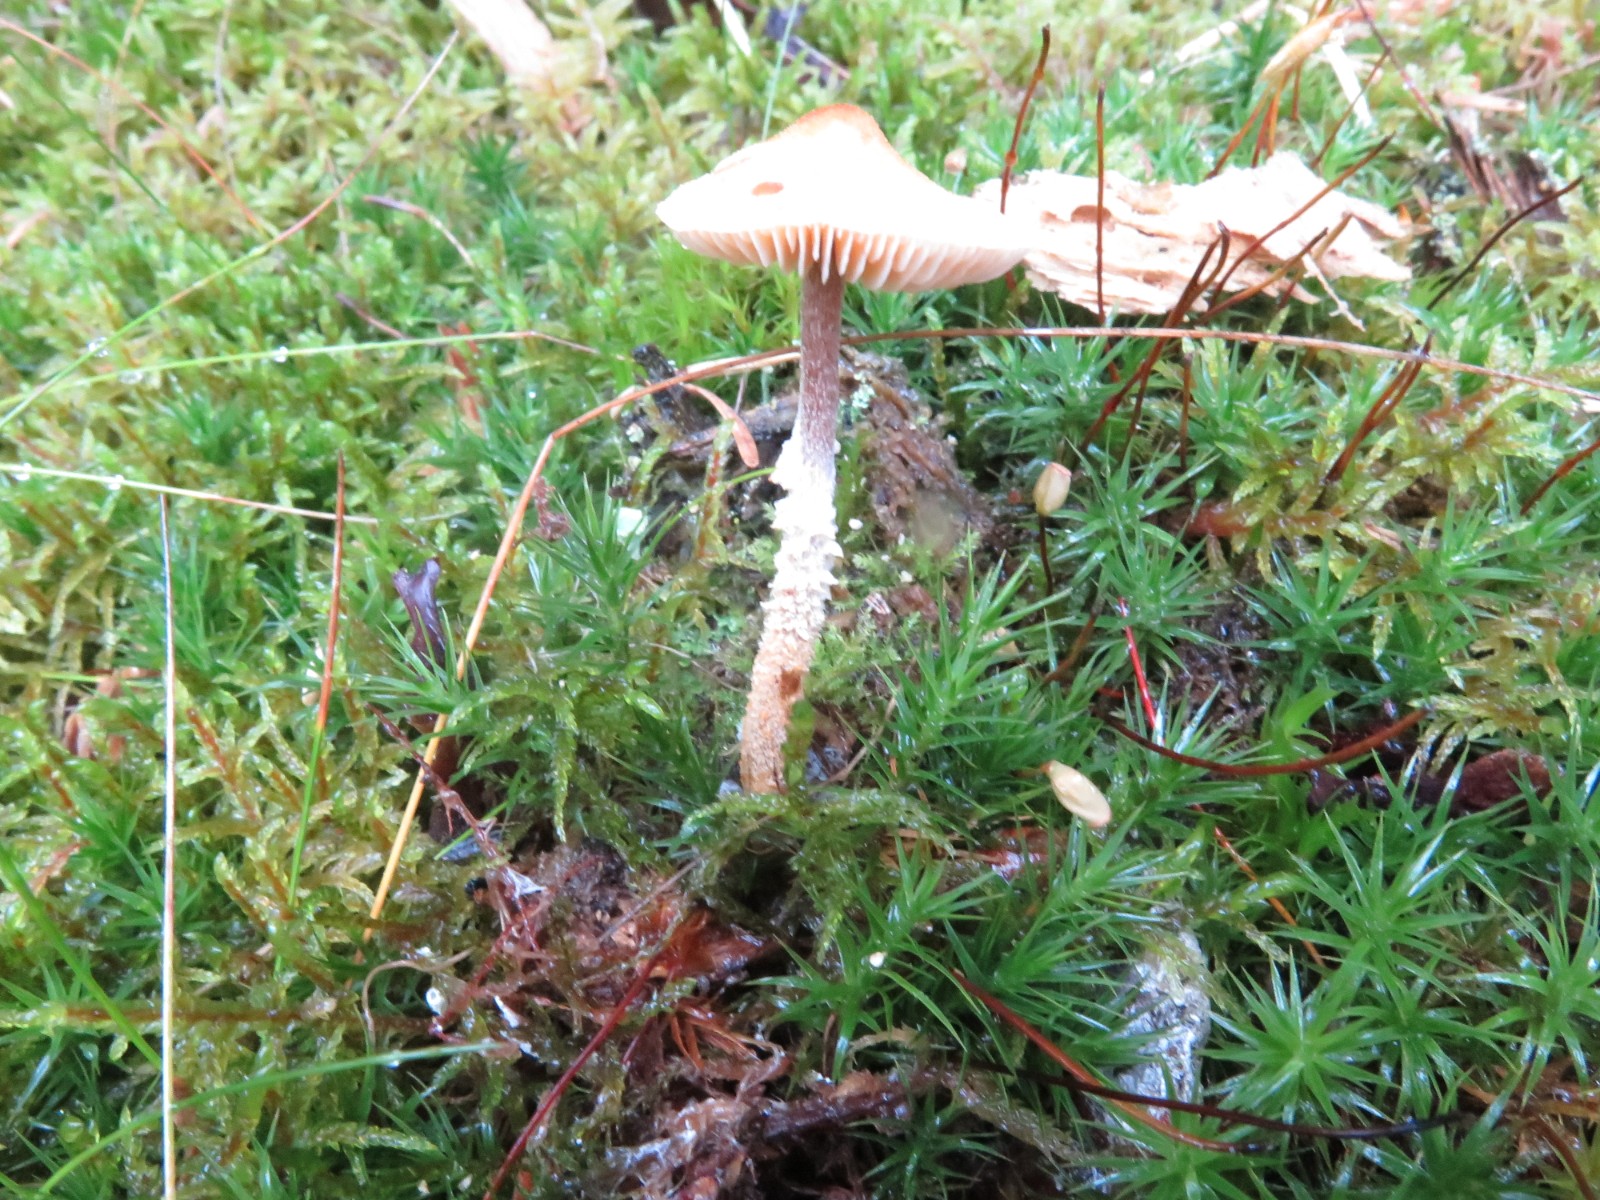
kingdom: Fungi
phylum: Basidiomycota
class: Agaricomycetes
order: Agaricales
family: Tricholomataceae
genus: Cystoderma
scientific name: Cystoderma jasonis
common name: gulkødet grynhat
